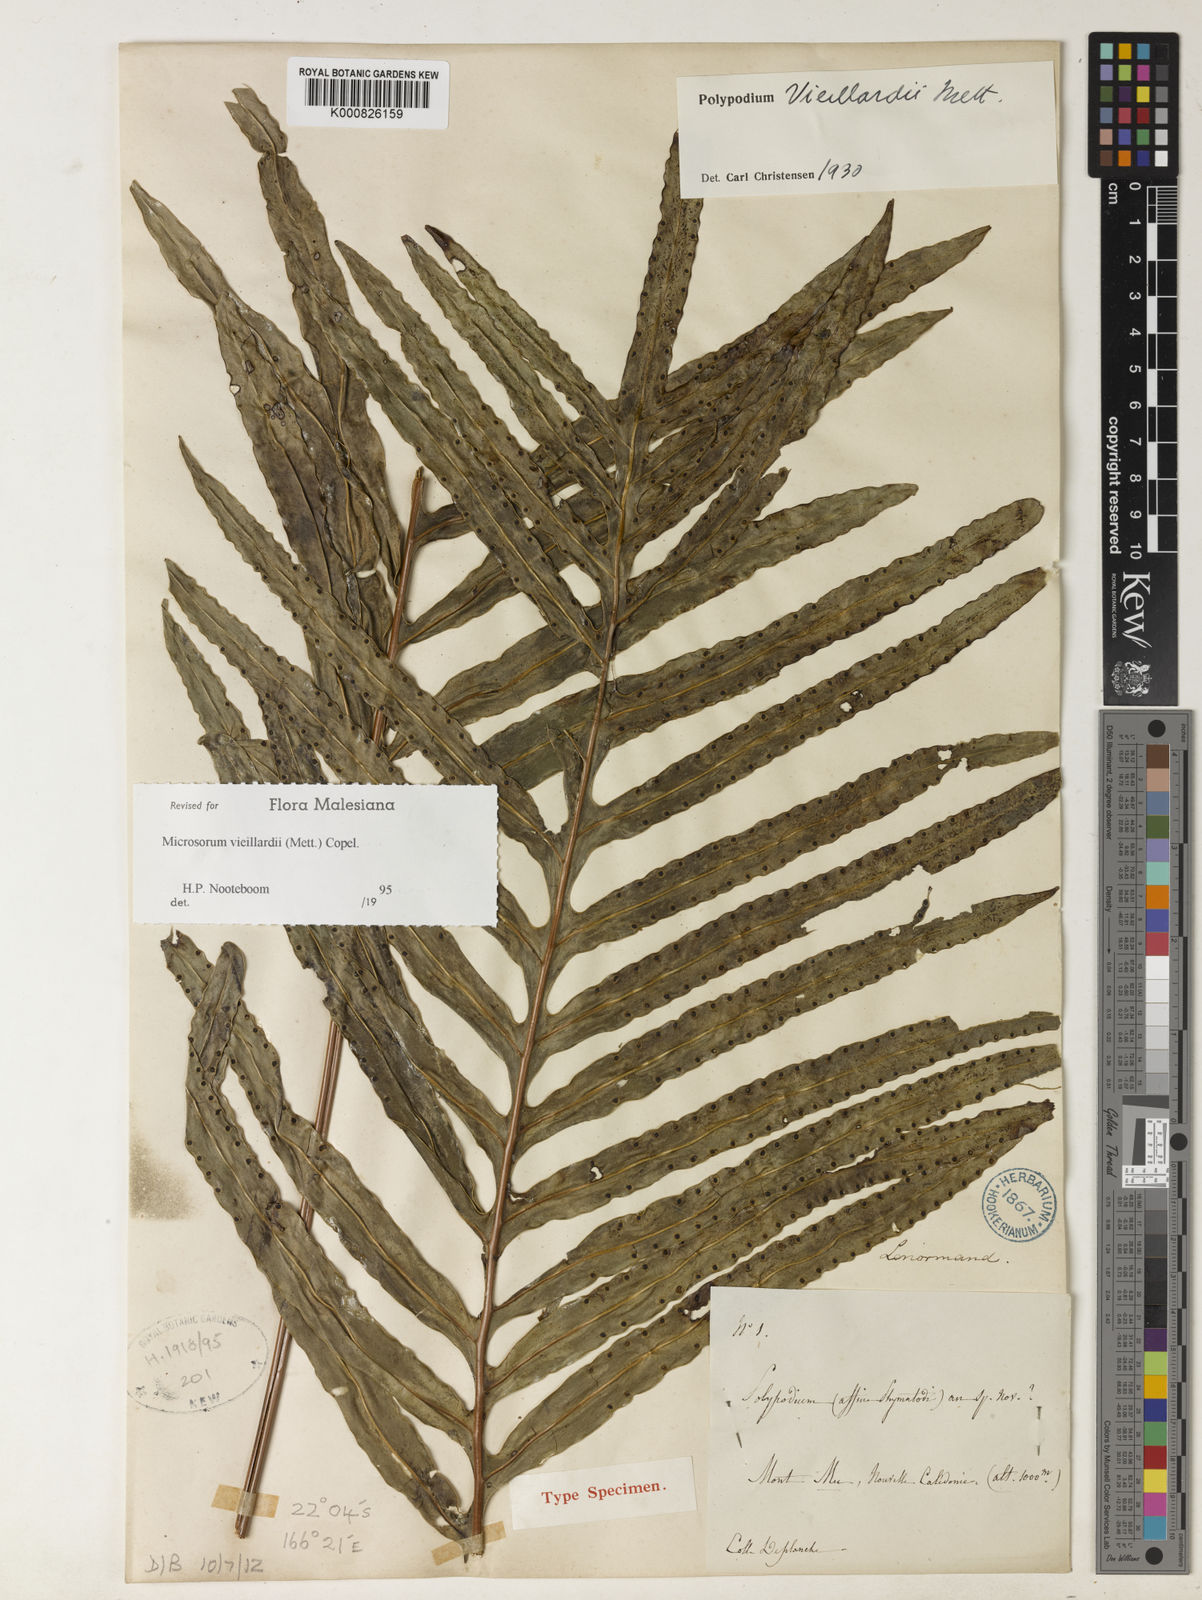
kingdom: Plantae
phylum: Tracheophyta
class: Polypodiopsida
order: Polypodiales
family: Polypodiaceae
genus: Lecanopteris
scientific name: Lecanopteris vieillardii
